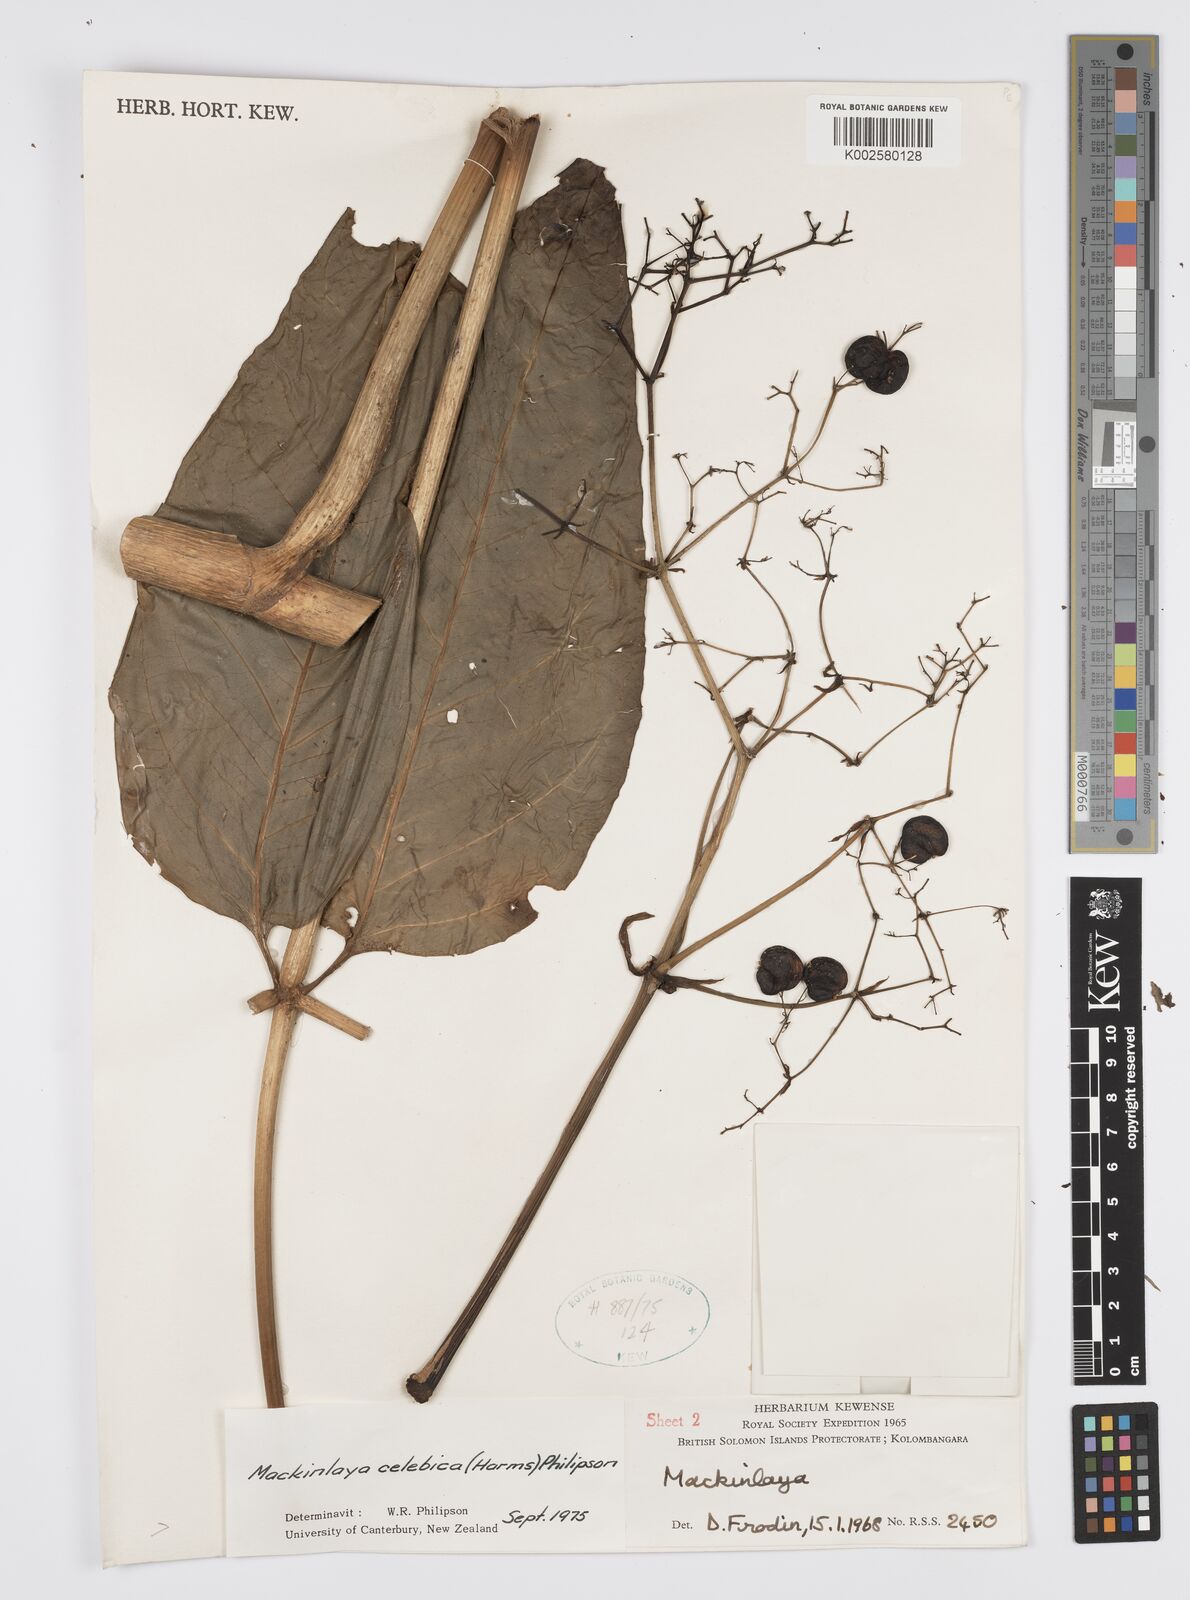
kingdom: Plantae
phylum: Tracheophyta
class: Magnoliopsida
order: Apiales
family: Apiaceae
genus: Mackinlaya
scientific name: Mackinlaya celebica
